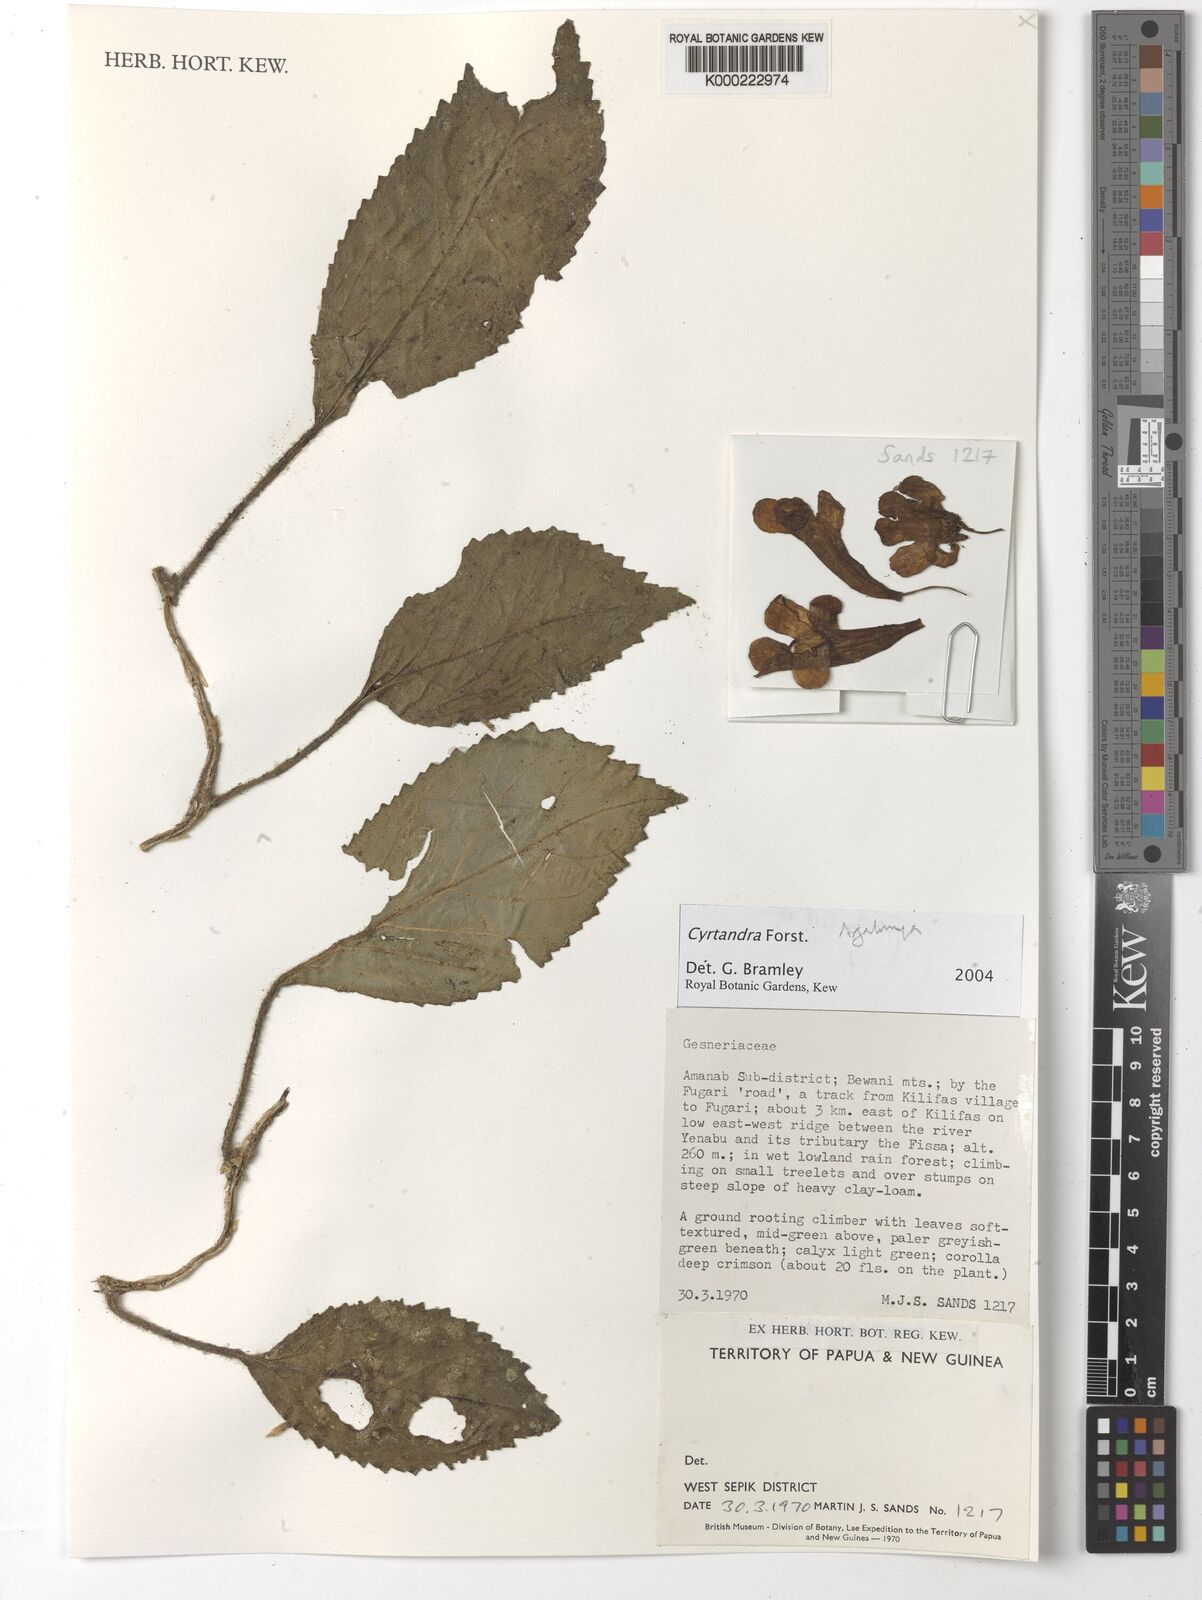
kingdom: Plantae
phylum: Tracheophyta
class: Magnoliopsida
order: Lamiales
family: Gesneriaceae
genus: Cyrtandra
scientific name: Cyrtandra
